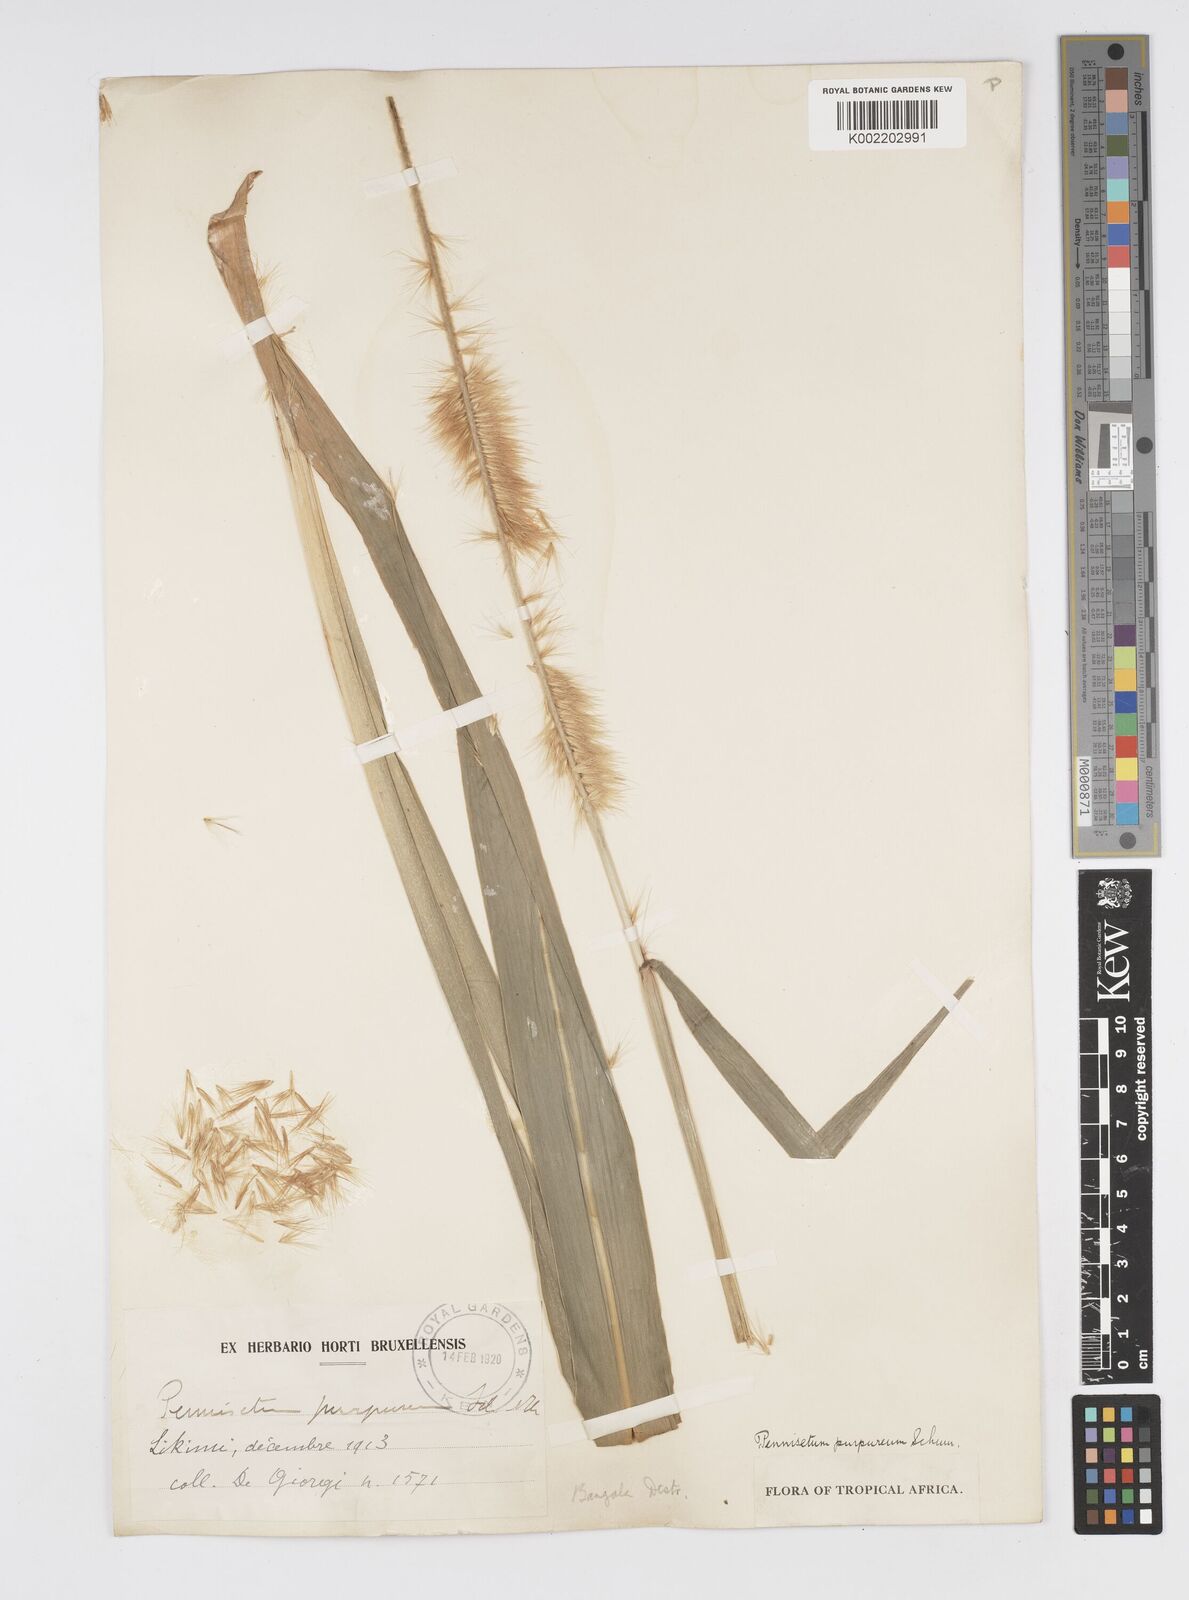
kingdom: Plantae
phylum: Tracheophyta
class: Liliopsida
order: Poales
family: Poaceae
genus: Cenchrus
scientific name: Cenchrus purpureus
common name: Elephant grass
